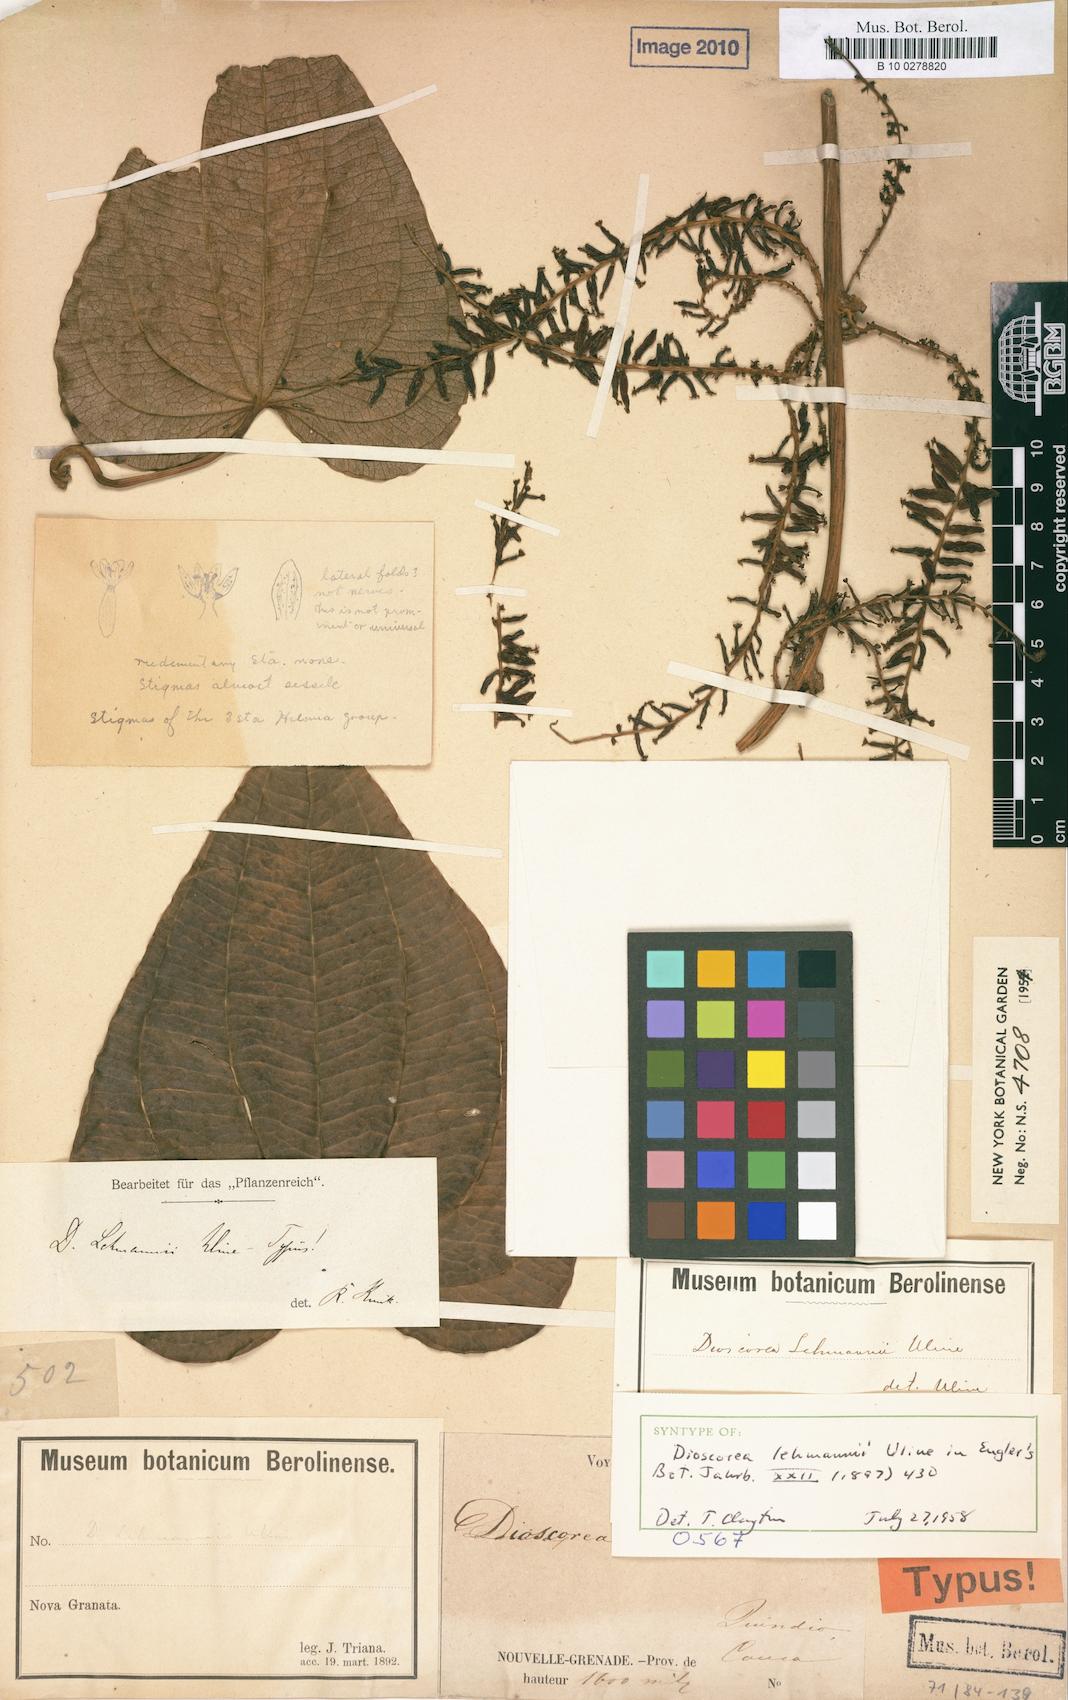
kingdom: Plantae
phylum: Tracheophyta
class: Liliopsida
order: Dioscoreales
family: Dioscoreaceae
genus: Dioscorea
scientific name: Dioscorea
